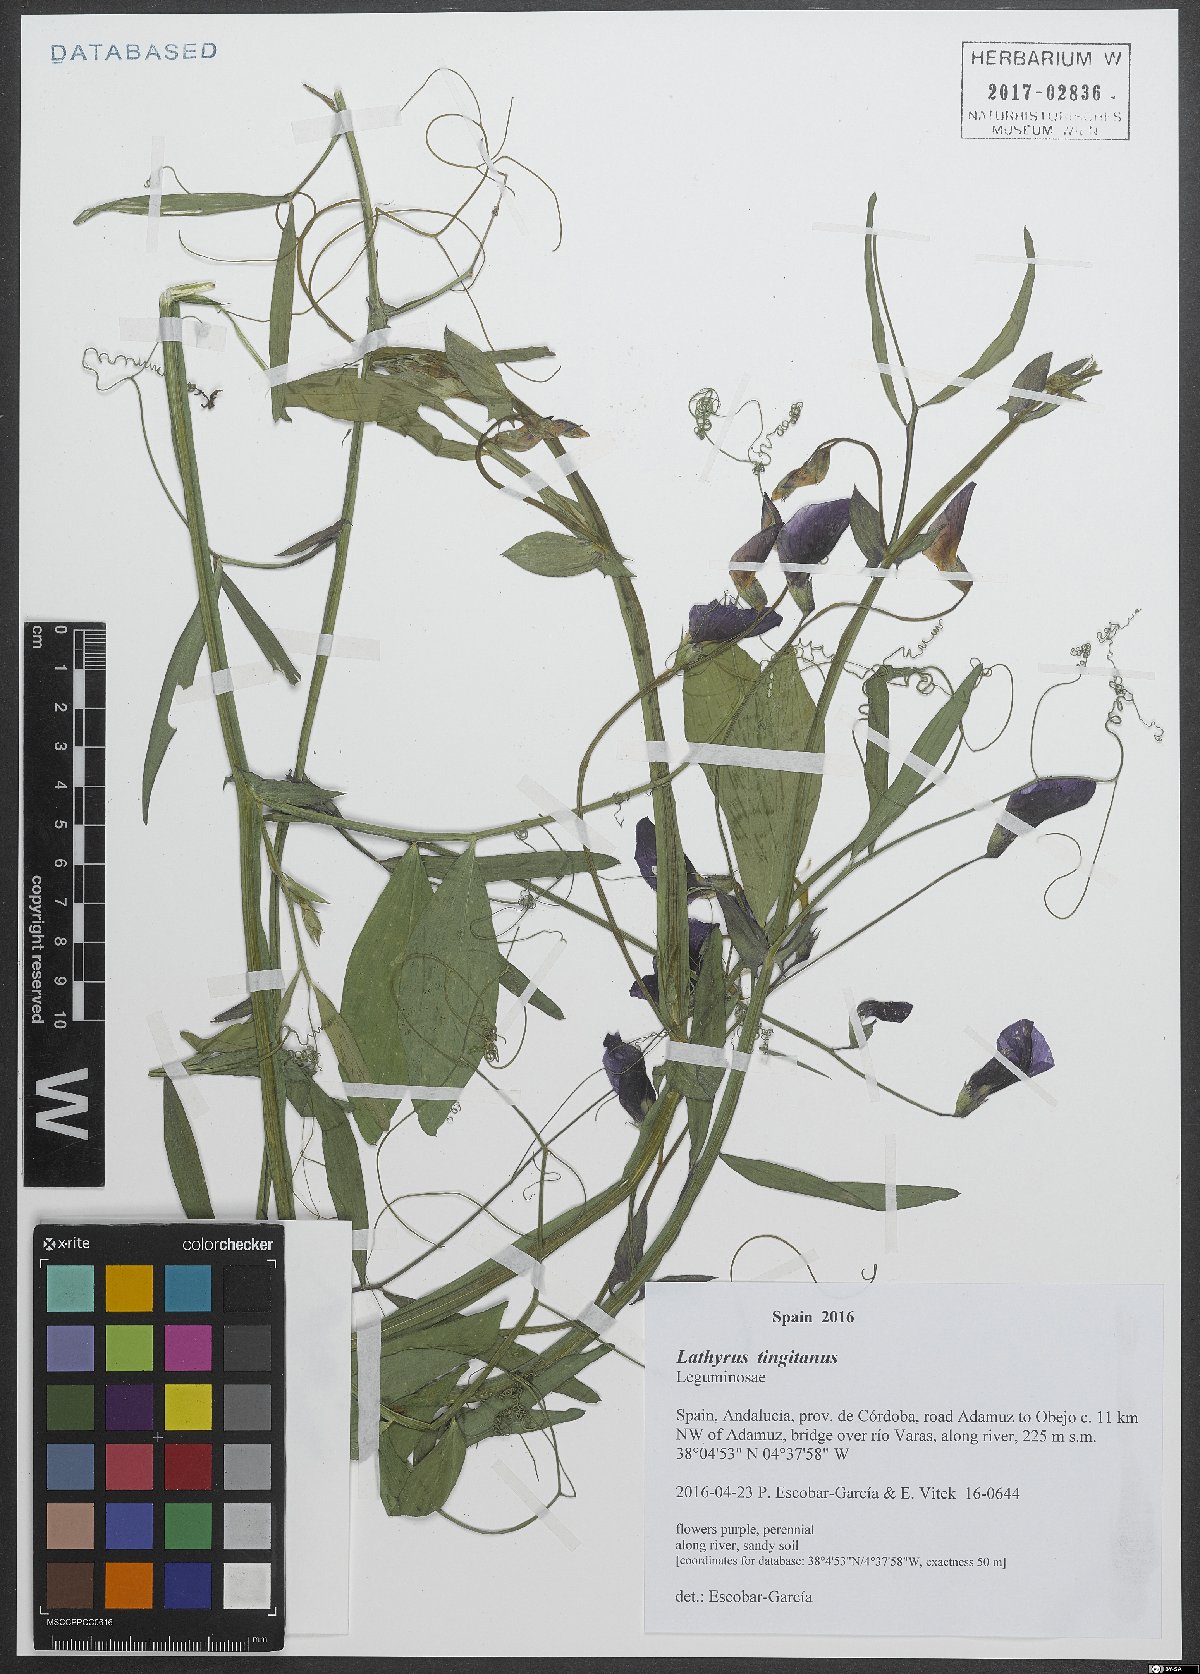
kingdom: Plantae
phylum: Tracheophyta
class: Magnoliopsida
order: Fabales
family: Fabaceae
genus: Lathyrus
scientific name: Lathyrus tingitanus
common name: Tangier pea
